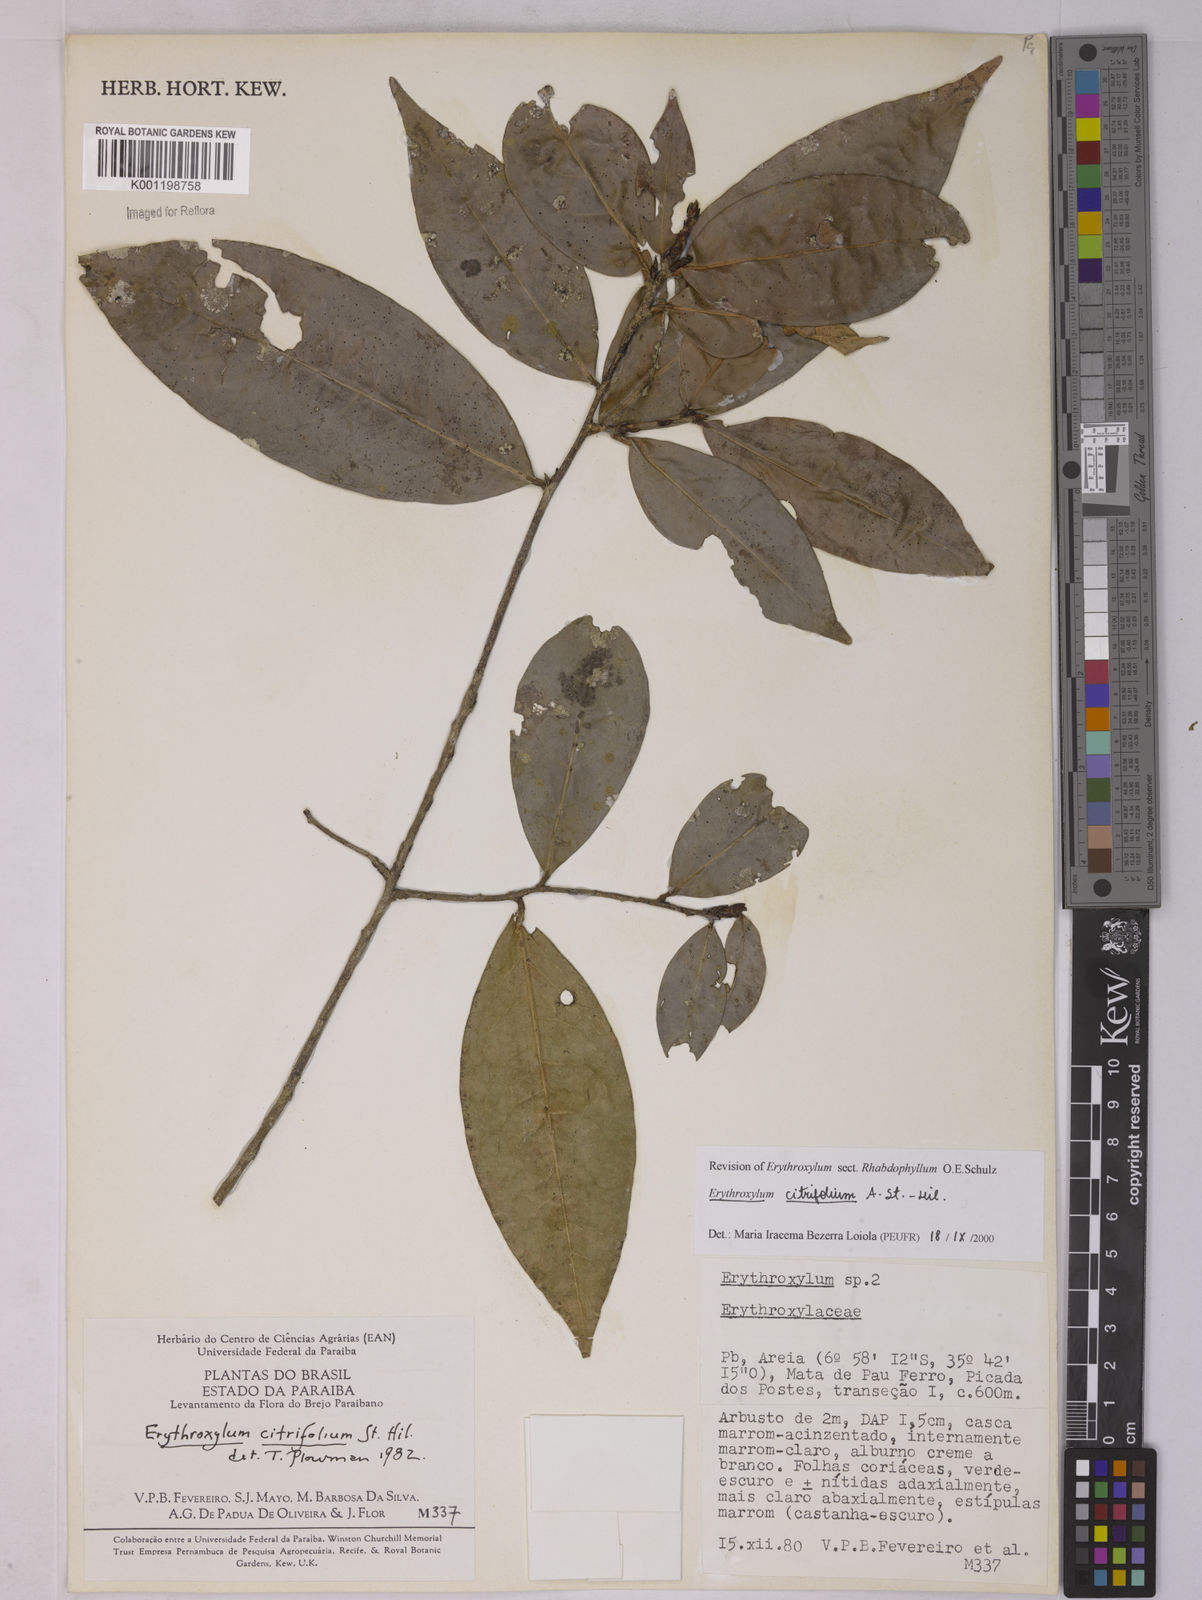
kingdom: Plantae
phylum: Tracheophyta
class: Magnoliopsida
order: Malpighiales
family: Erythroxylaceae
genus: Erythroxylum
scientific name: Erythroxylum citrifolium
